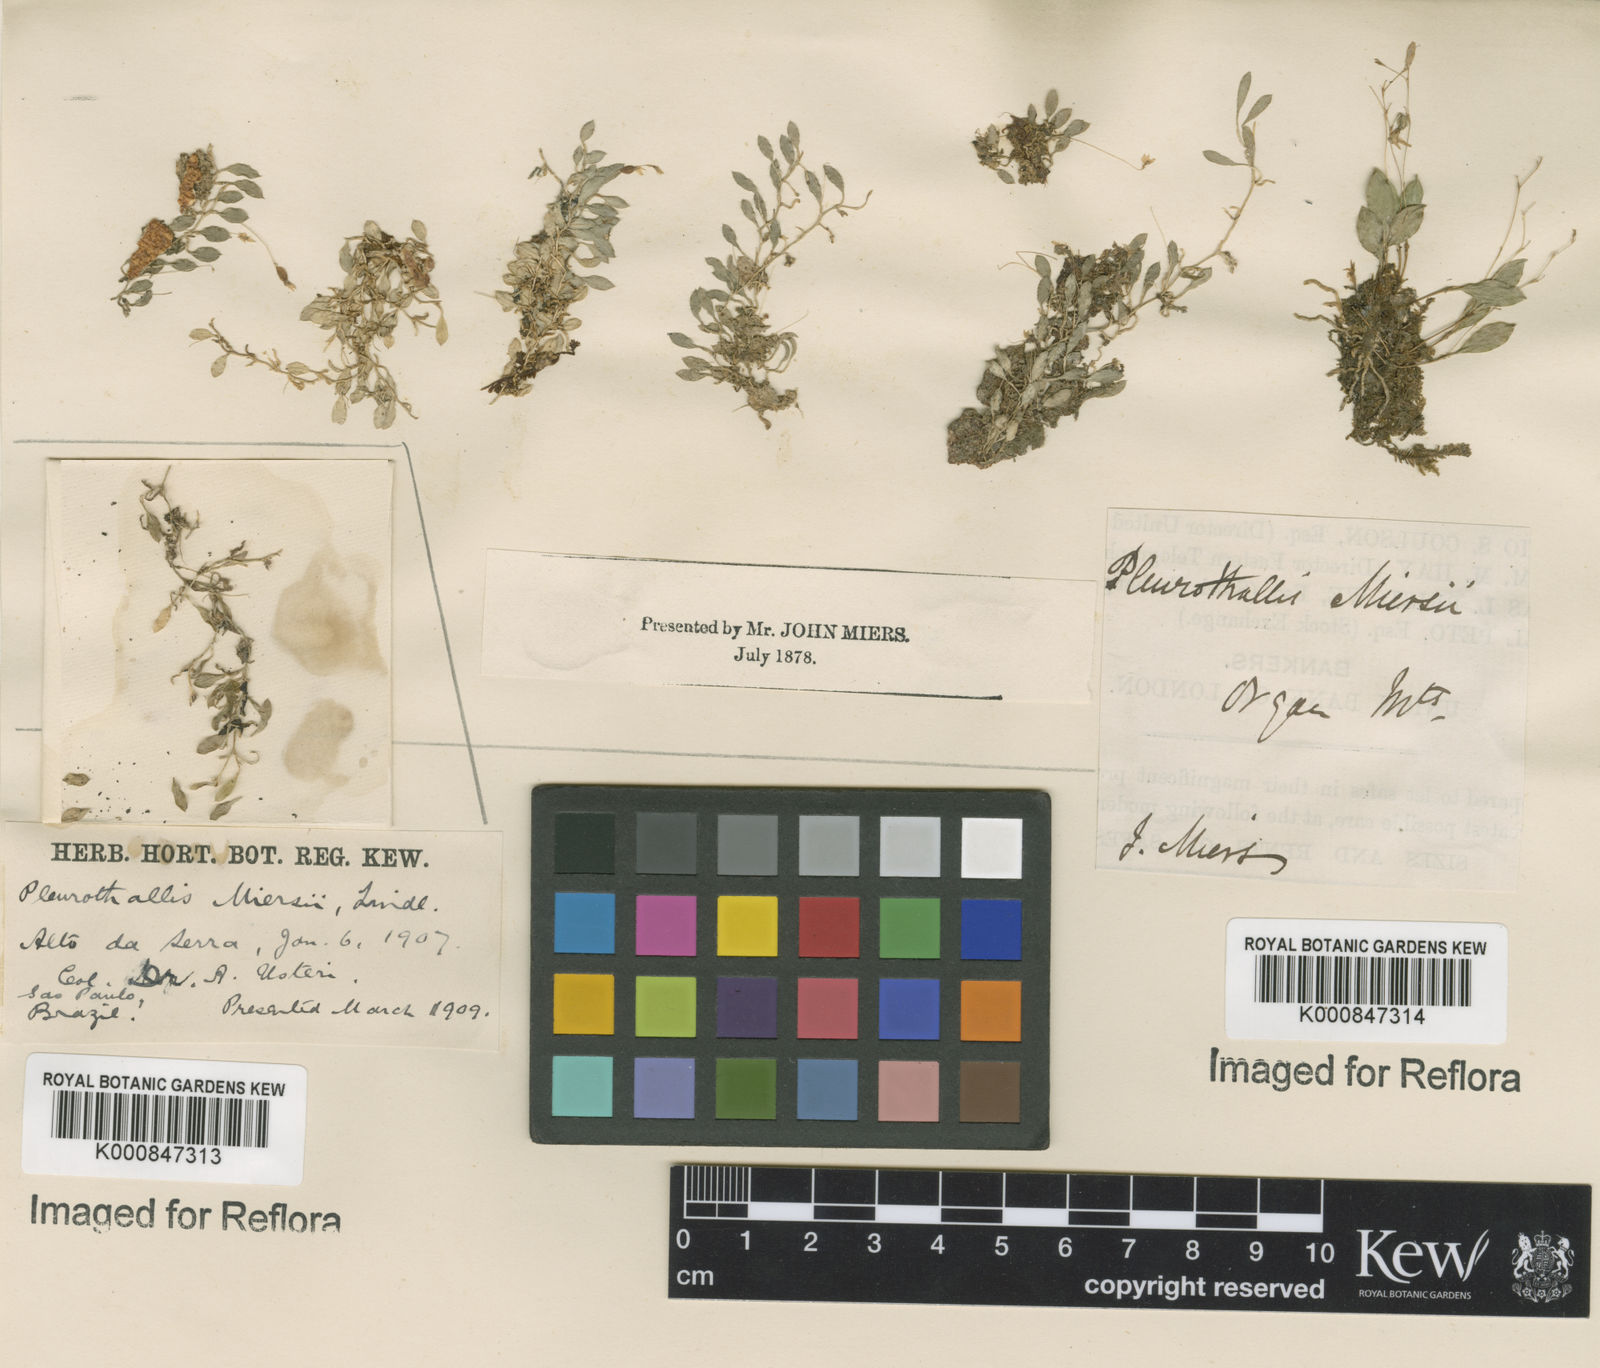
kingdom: Plantae
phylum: Tracheophyta
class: Liliopsida
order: Asparagales
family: Orchidaceae
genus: Barbosella
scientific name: Barbosella miersii
